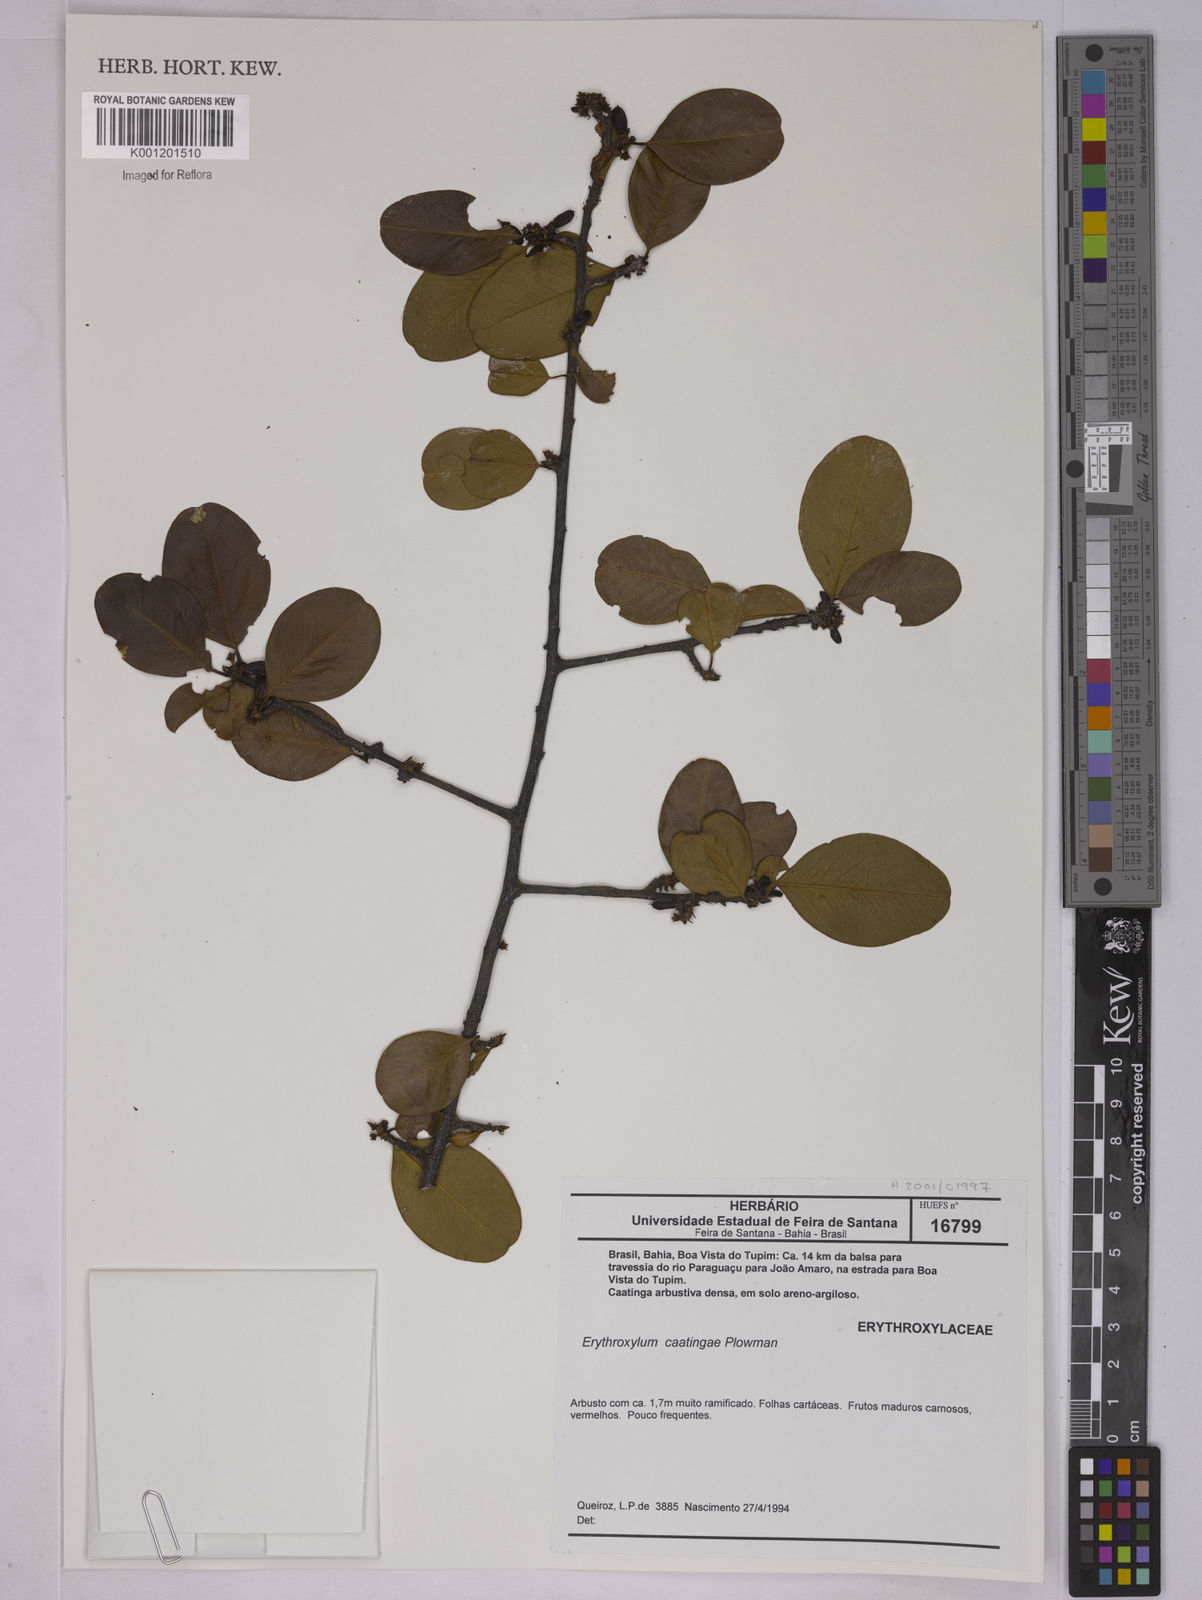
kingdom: Plantae
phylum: Tracheophyta
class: Magnoliopsida
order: Malpighiales
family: Erythroxylaceae
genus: Erythroxylum
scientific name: Erythroxylum caatingae
